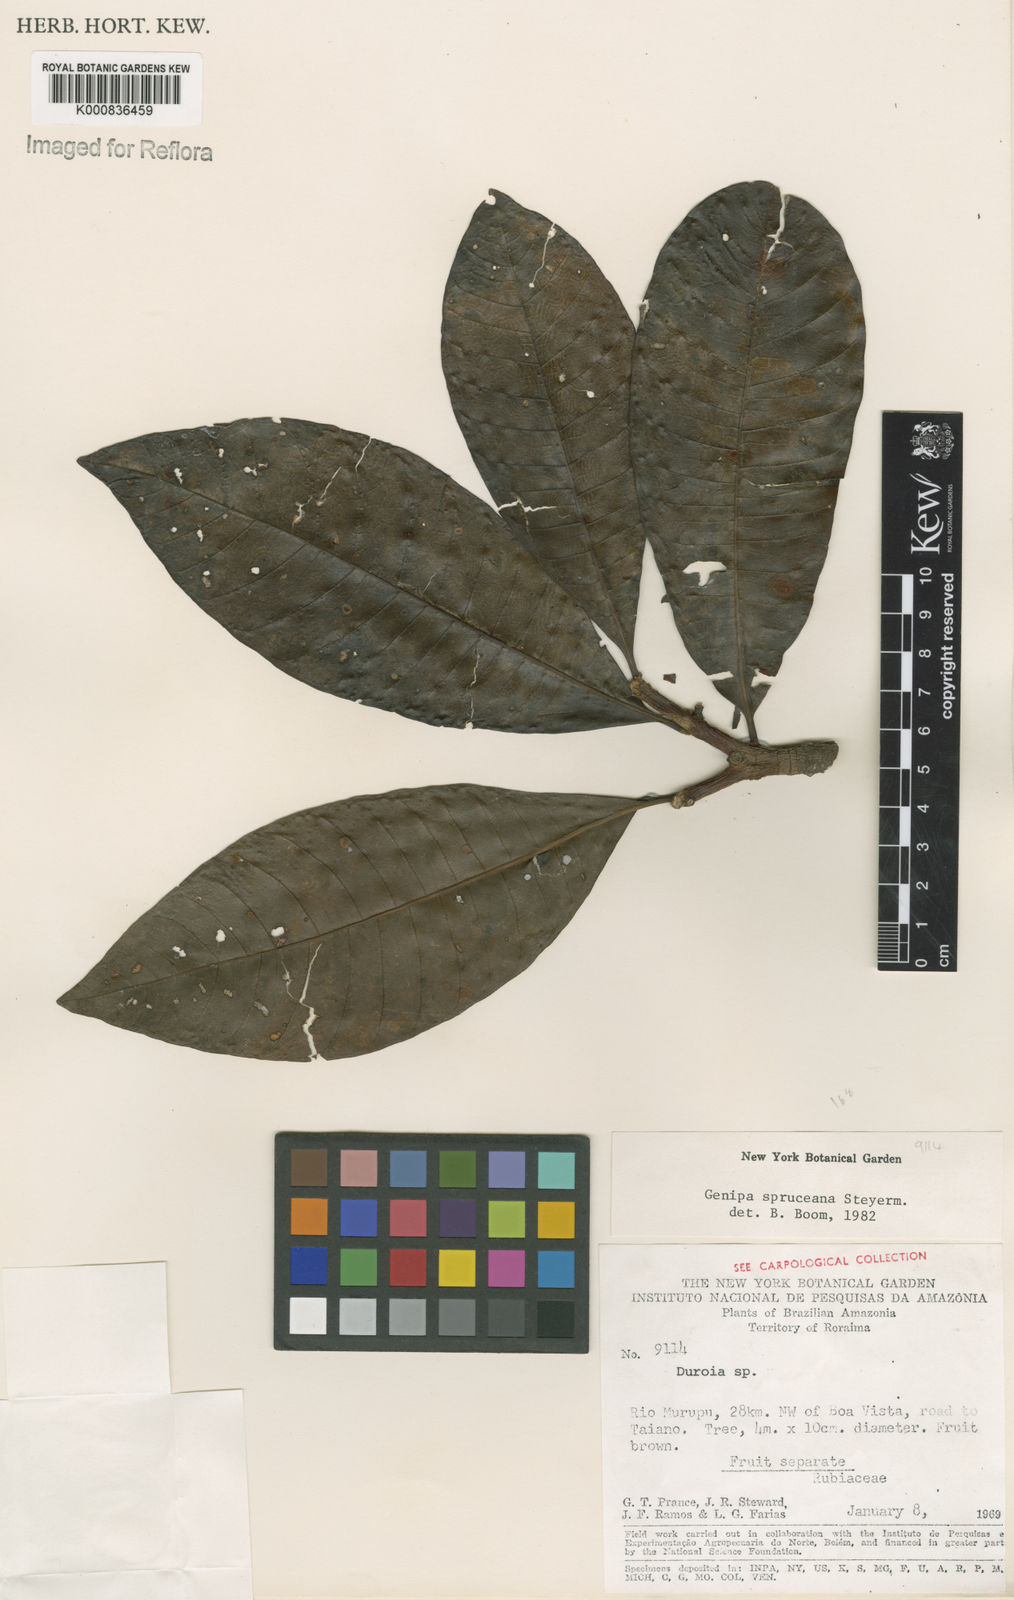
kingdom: Plantae
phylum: Tracheophyta
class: Magnoliopsida
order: Gentianales
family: Rubiaceae
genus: Genipa
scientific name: Genipa americana
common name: Genipap
